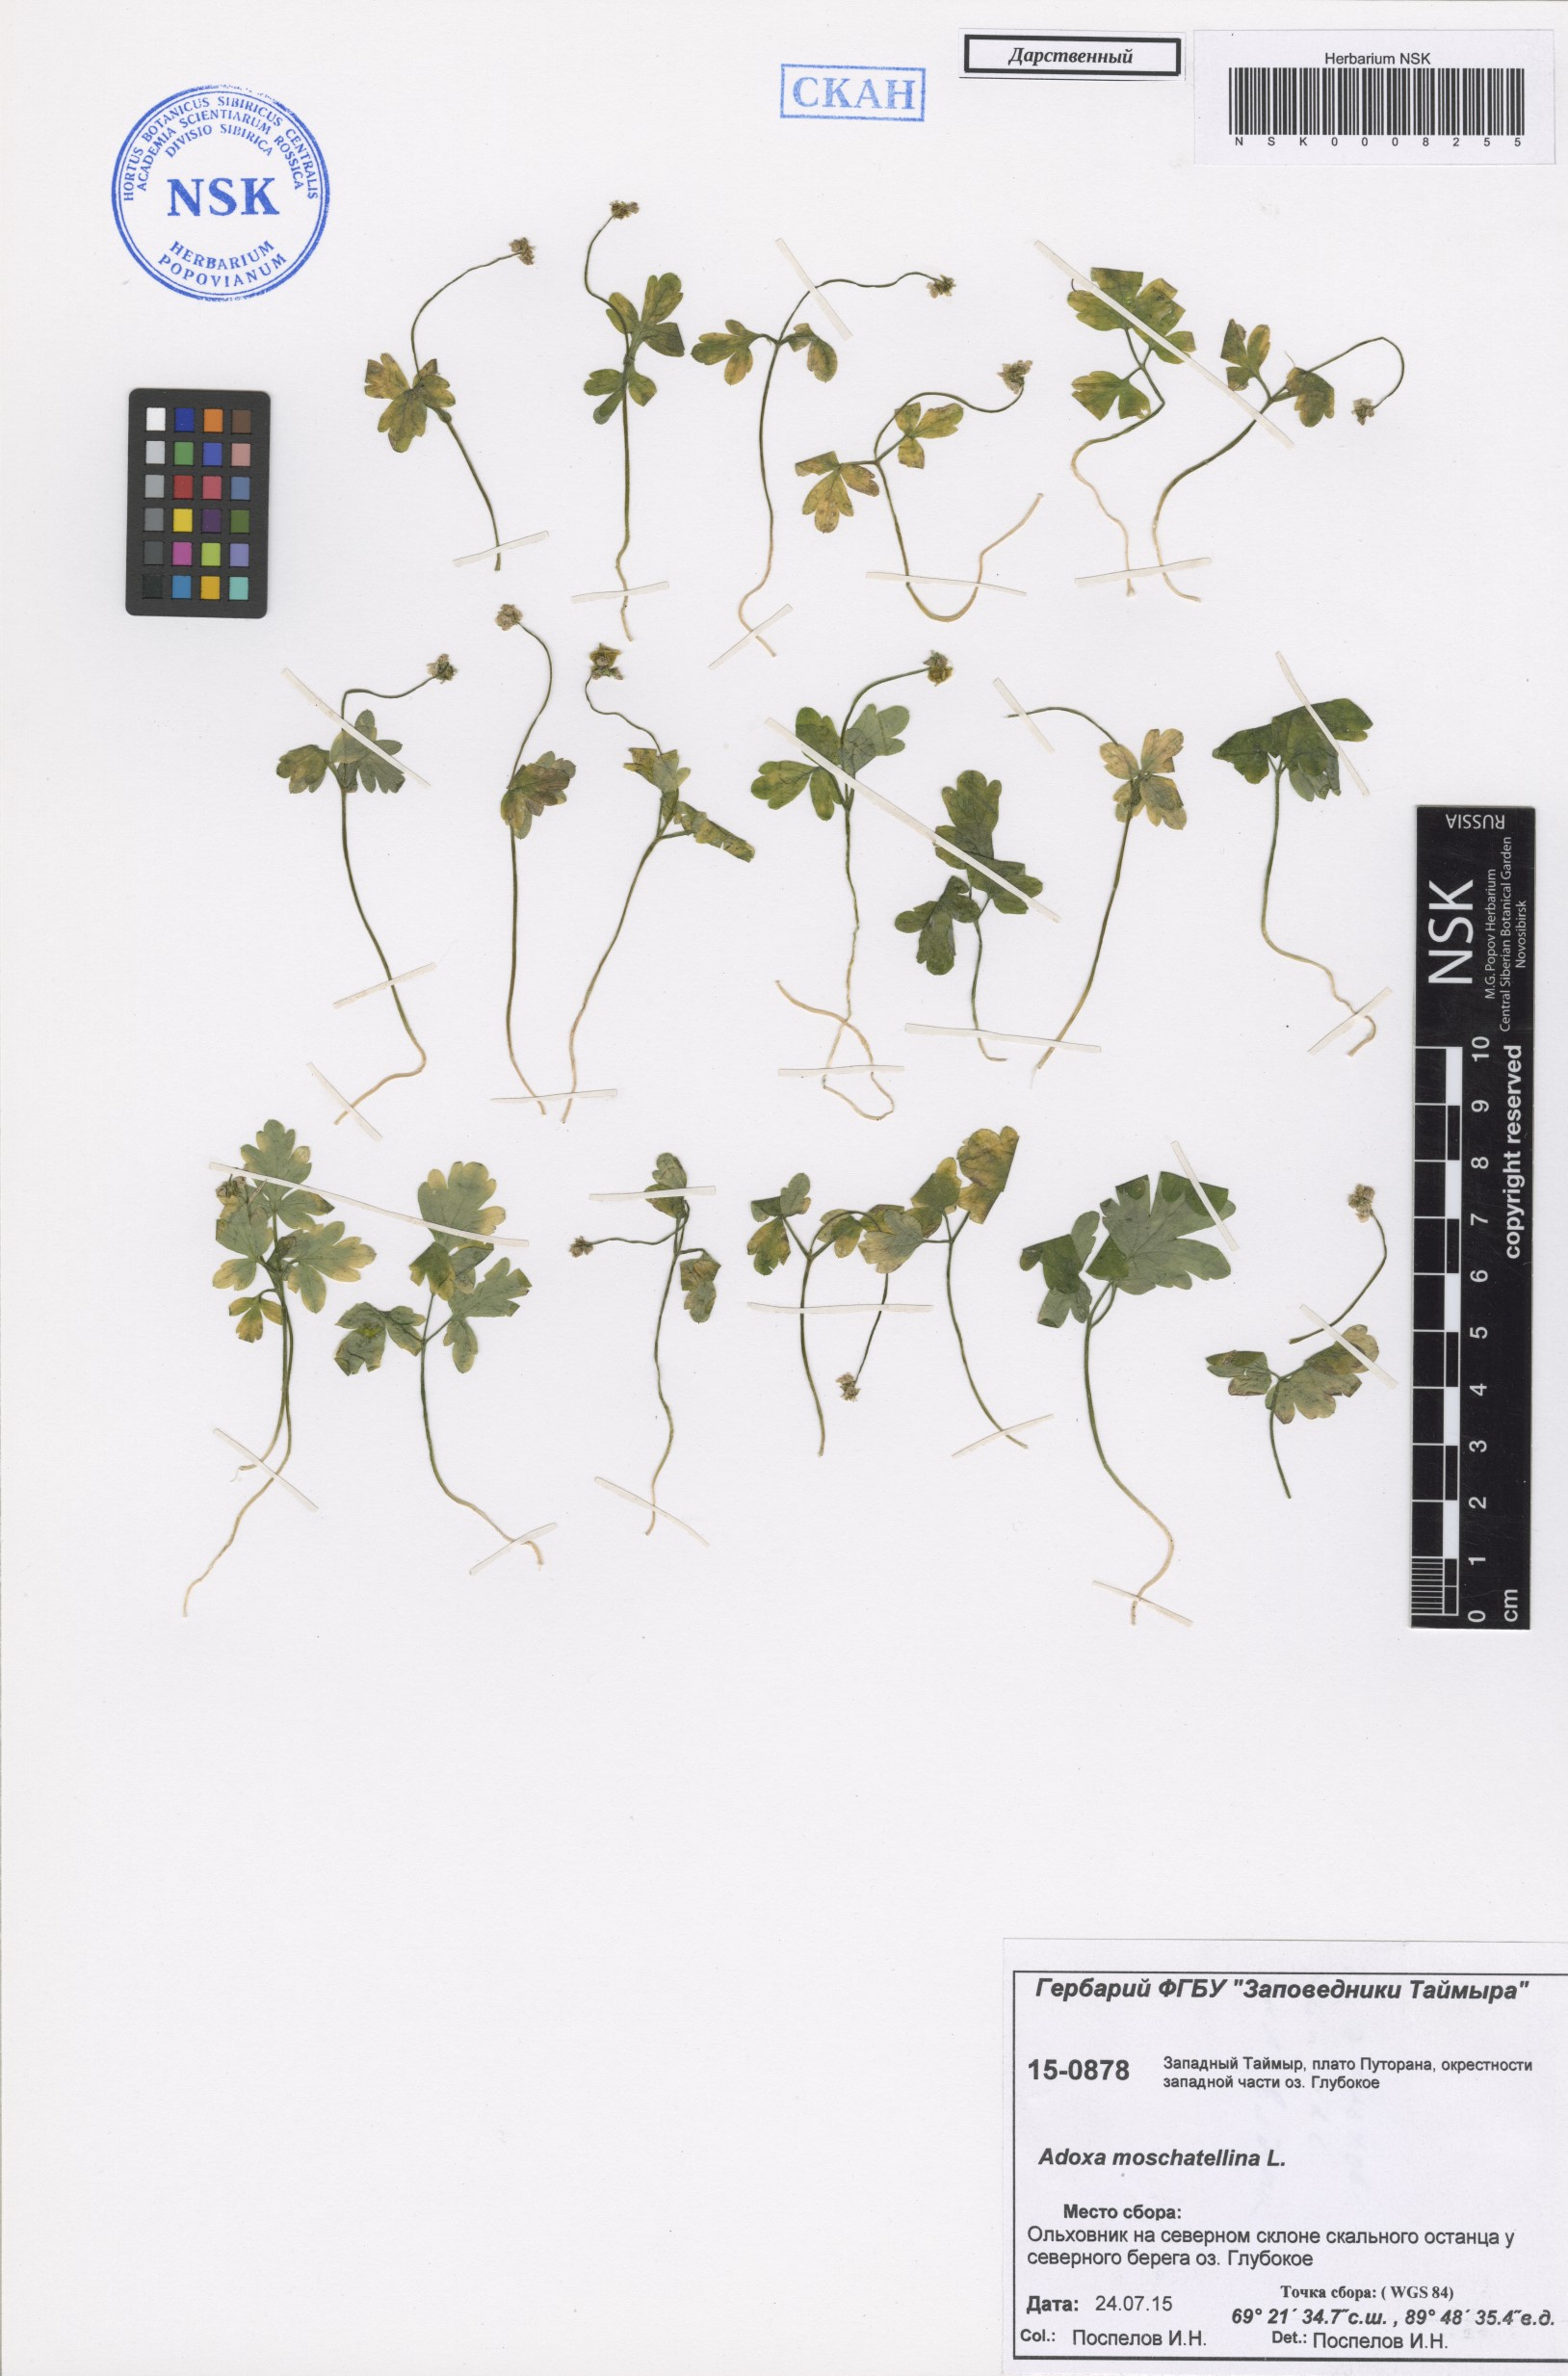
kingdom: Plantae
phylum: Tracheophyta
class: Magnoliopsida
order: Dipsacales
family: Viburnaceae
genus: Adoxa
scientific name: Adoxa moschatellina
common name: Moschatel
